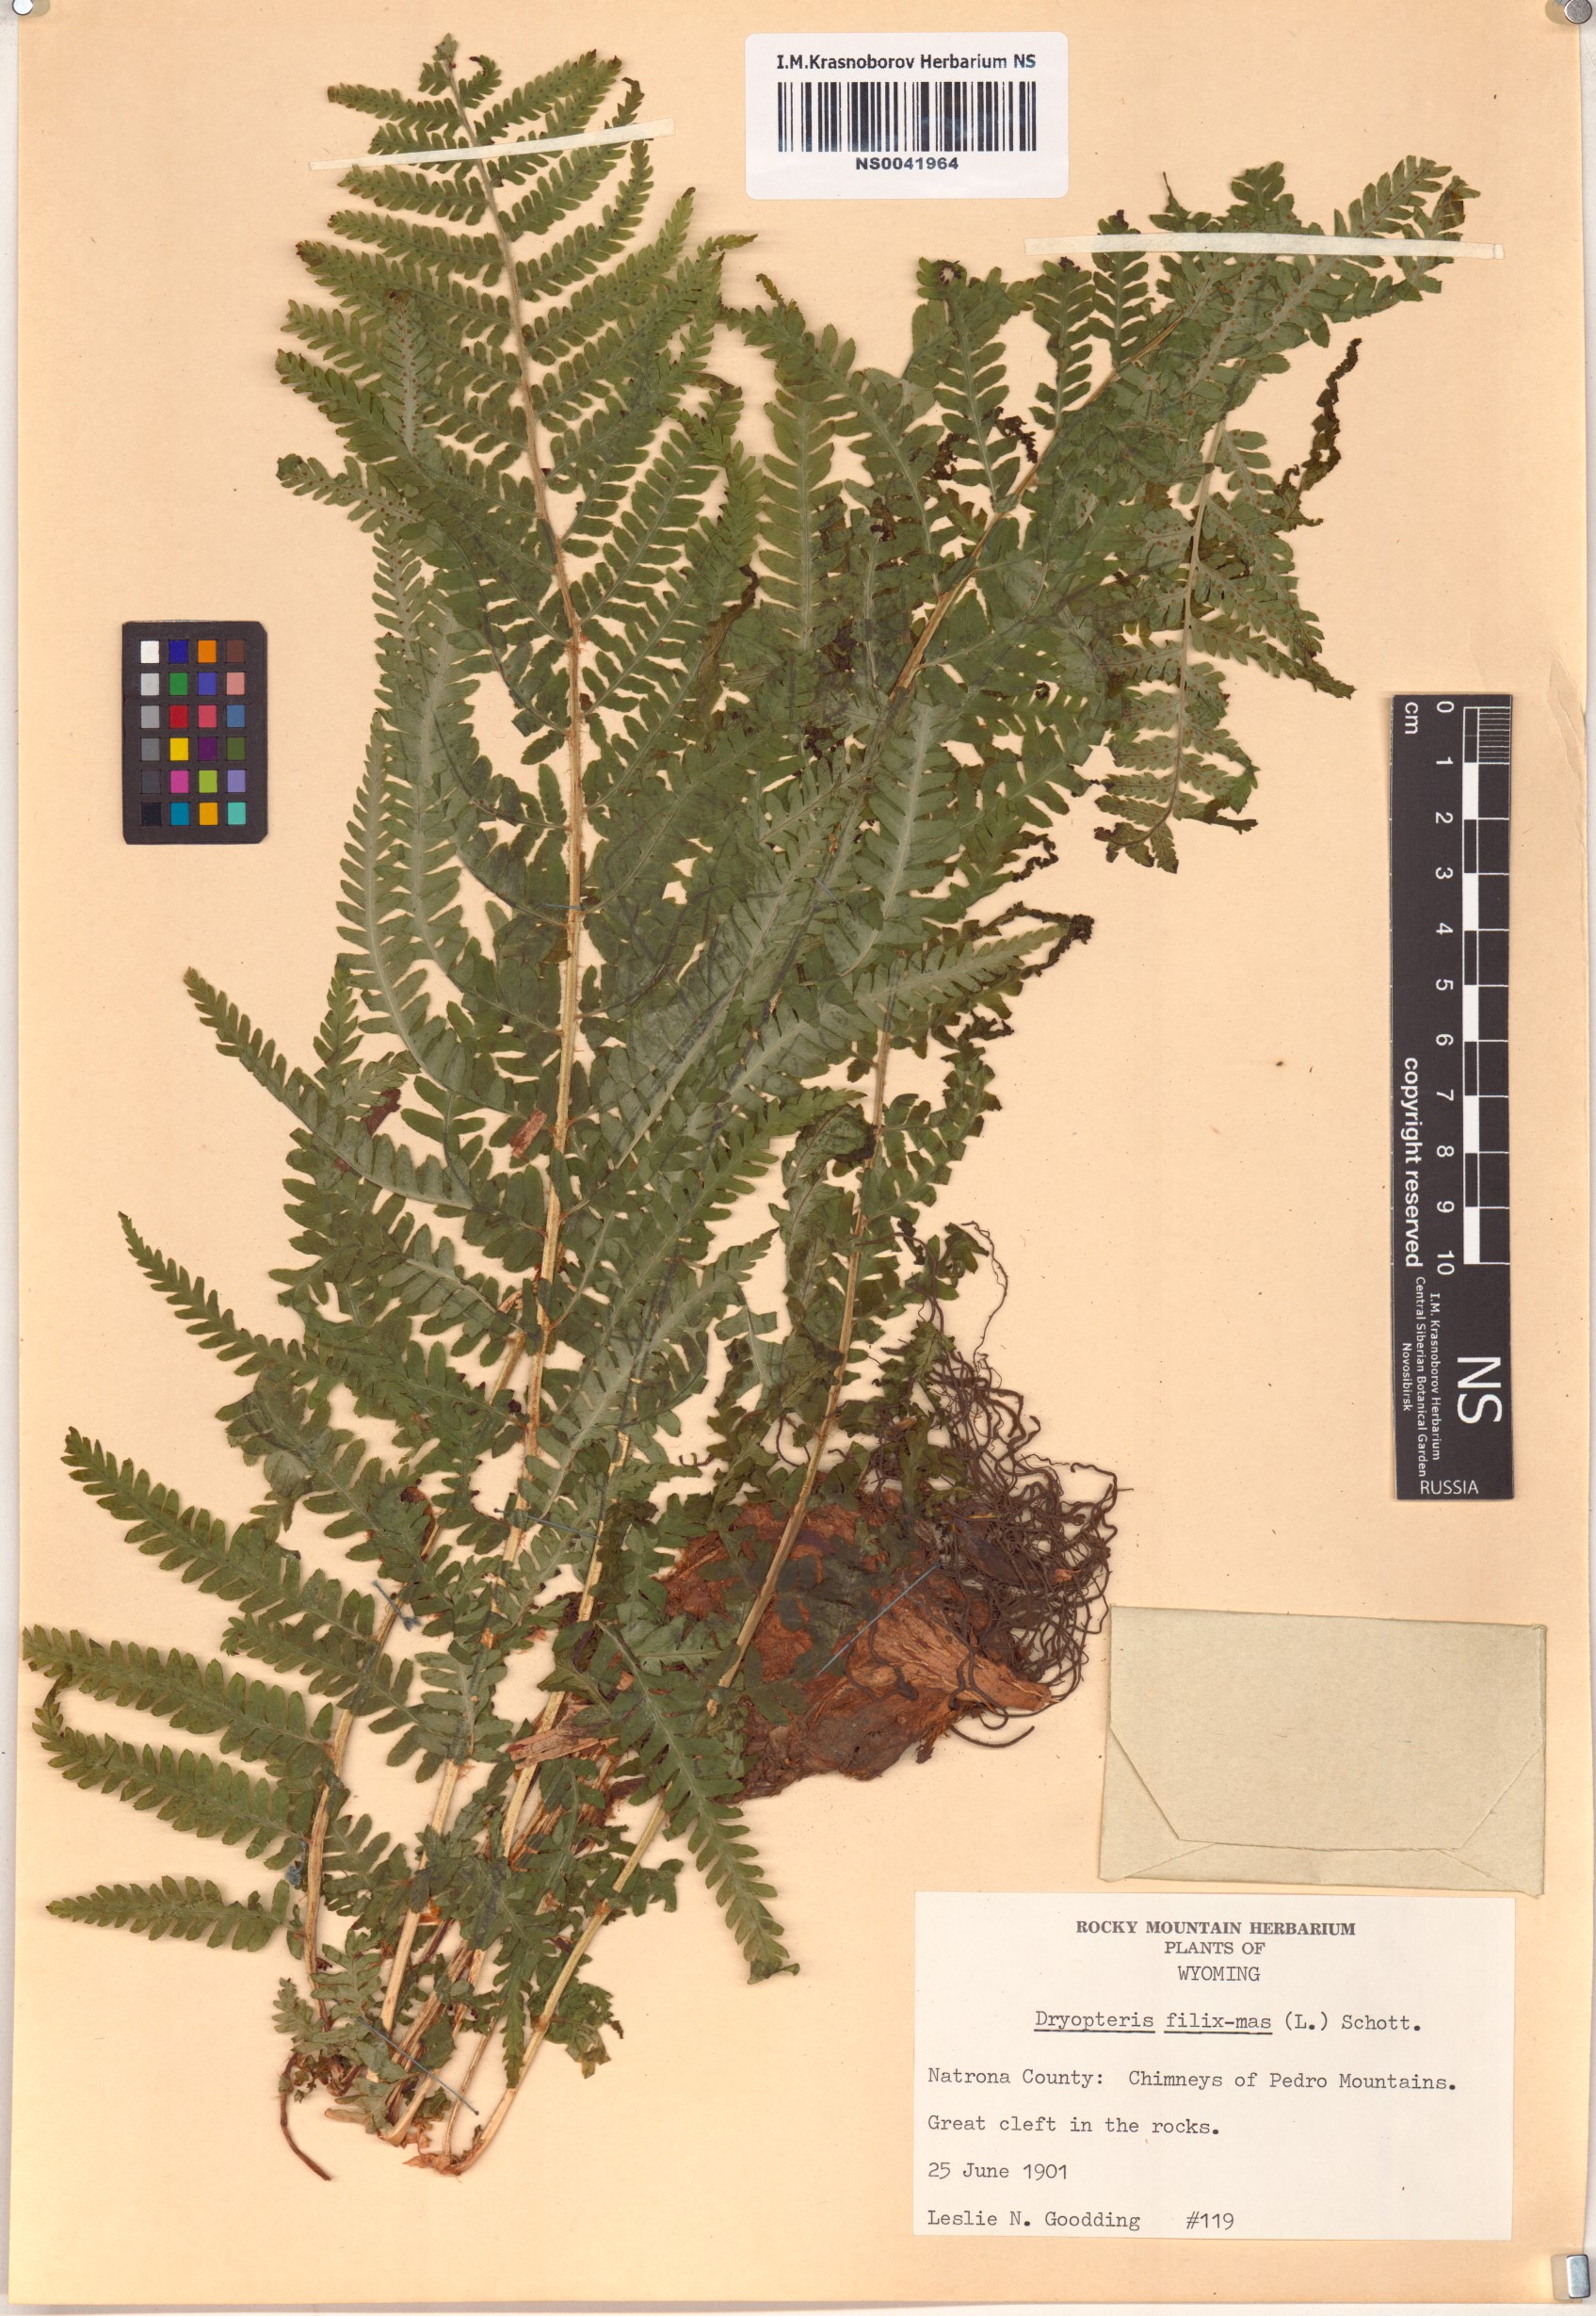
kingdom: Plantae
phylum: Tracheophyta
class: Polypodiopsida
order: Polypodiales
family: Dryopteridaceae
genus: Dryopteris
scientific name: Dryopteris filix-mas
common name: Male fern
